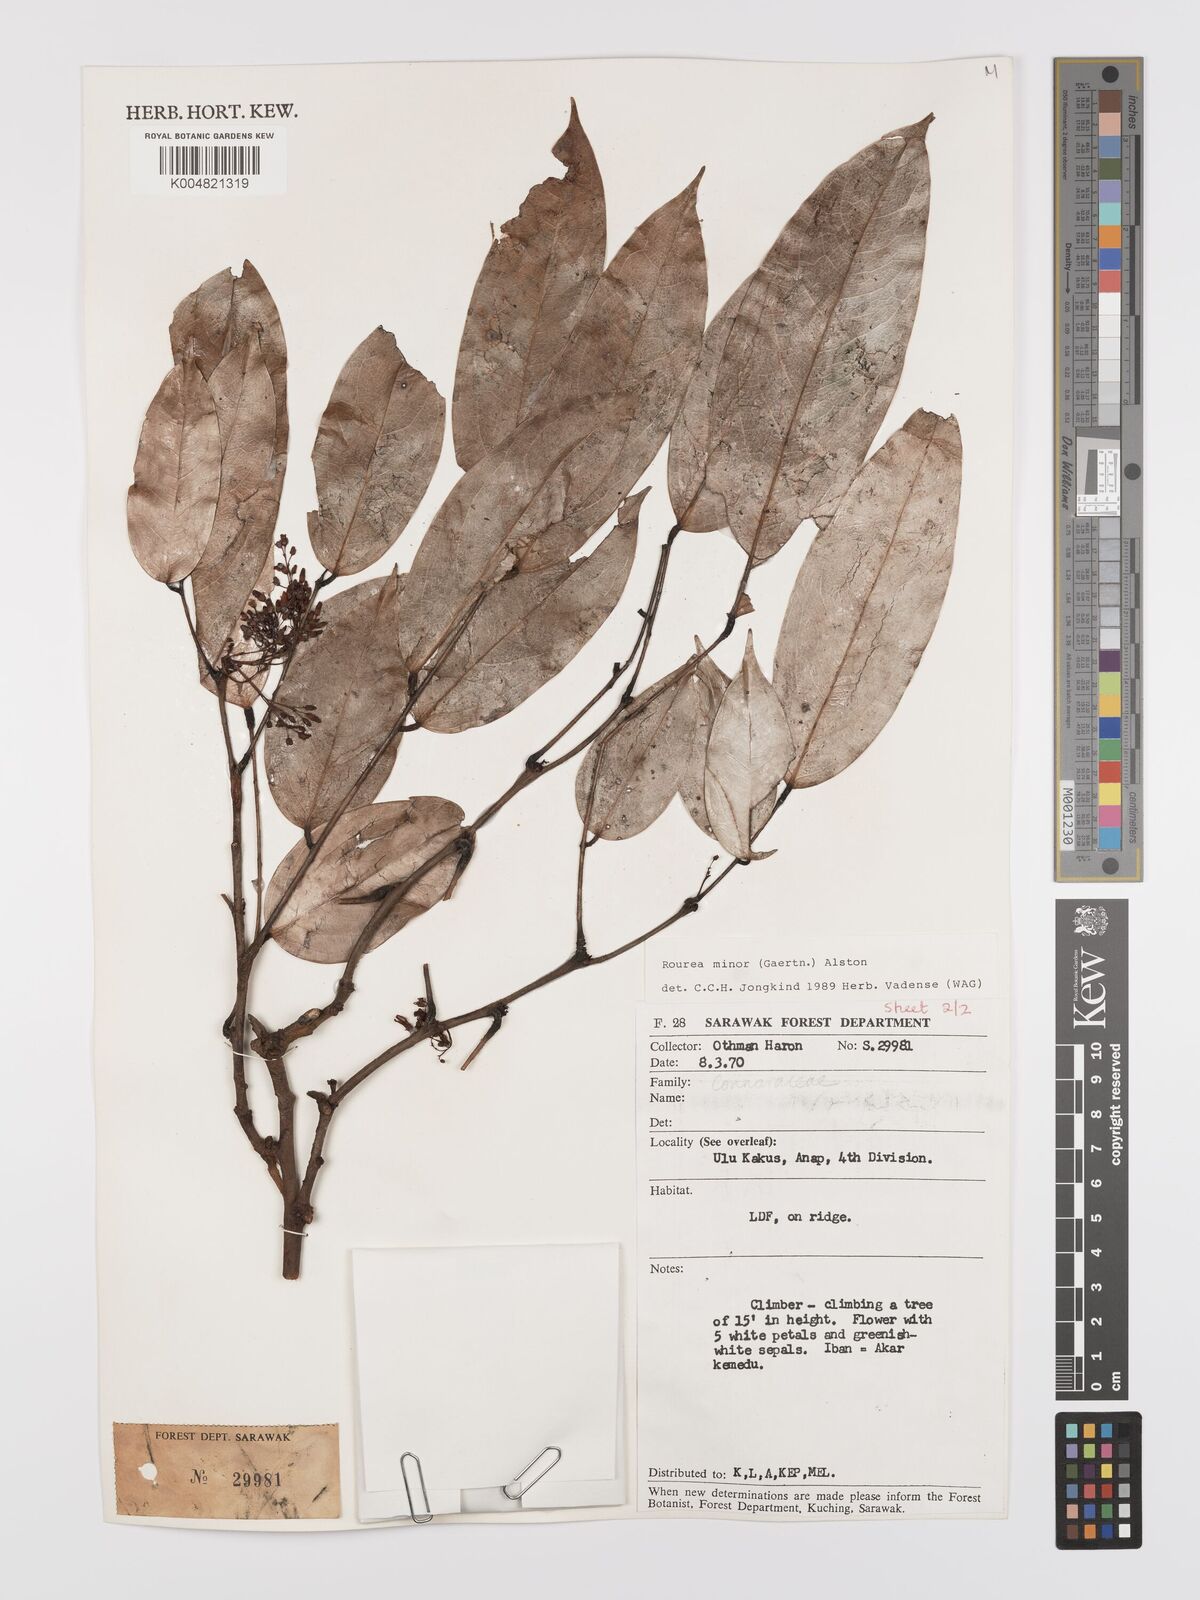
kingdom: Plantae
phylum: Tracheophyta
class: Magnoliopsida
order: Oxalidales
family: Connaraceae
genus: Rourea
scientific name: Rourea minor
